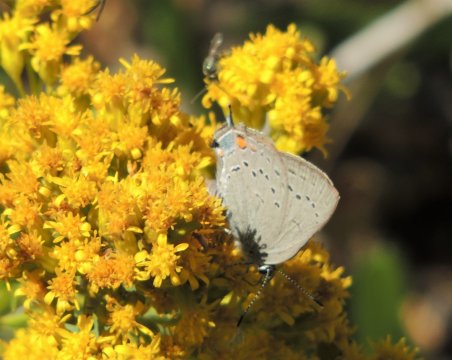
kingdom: Animalia
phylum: Arthropoda
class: Insecta
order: Lepidoptera
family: Lycaenidae
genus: Strymon
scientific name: Strymon sylvinus
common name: Sylvan Hairstreak
